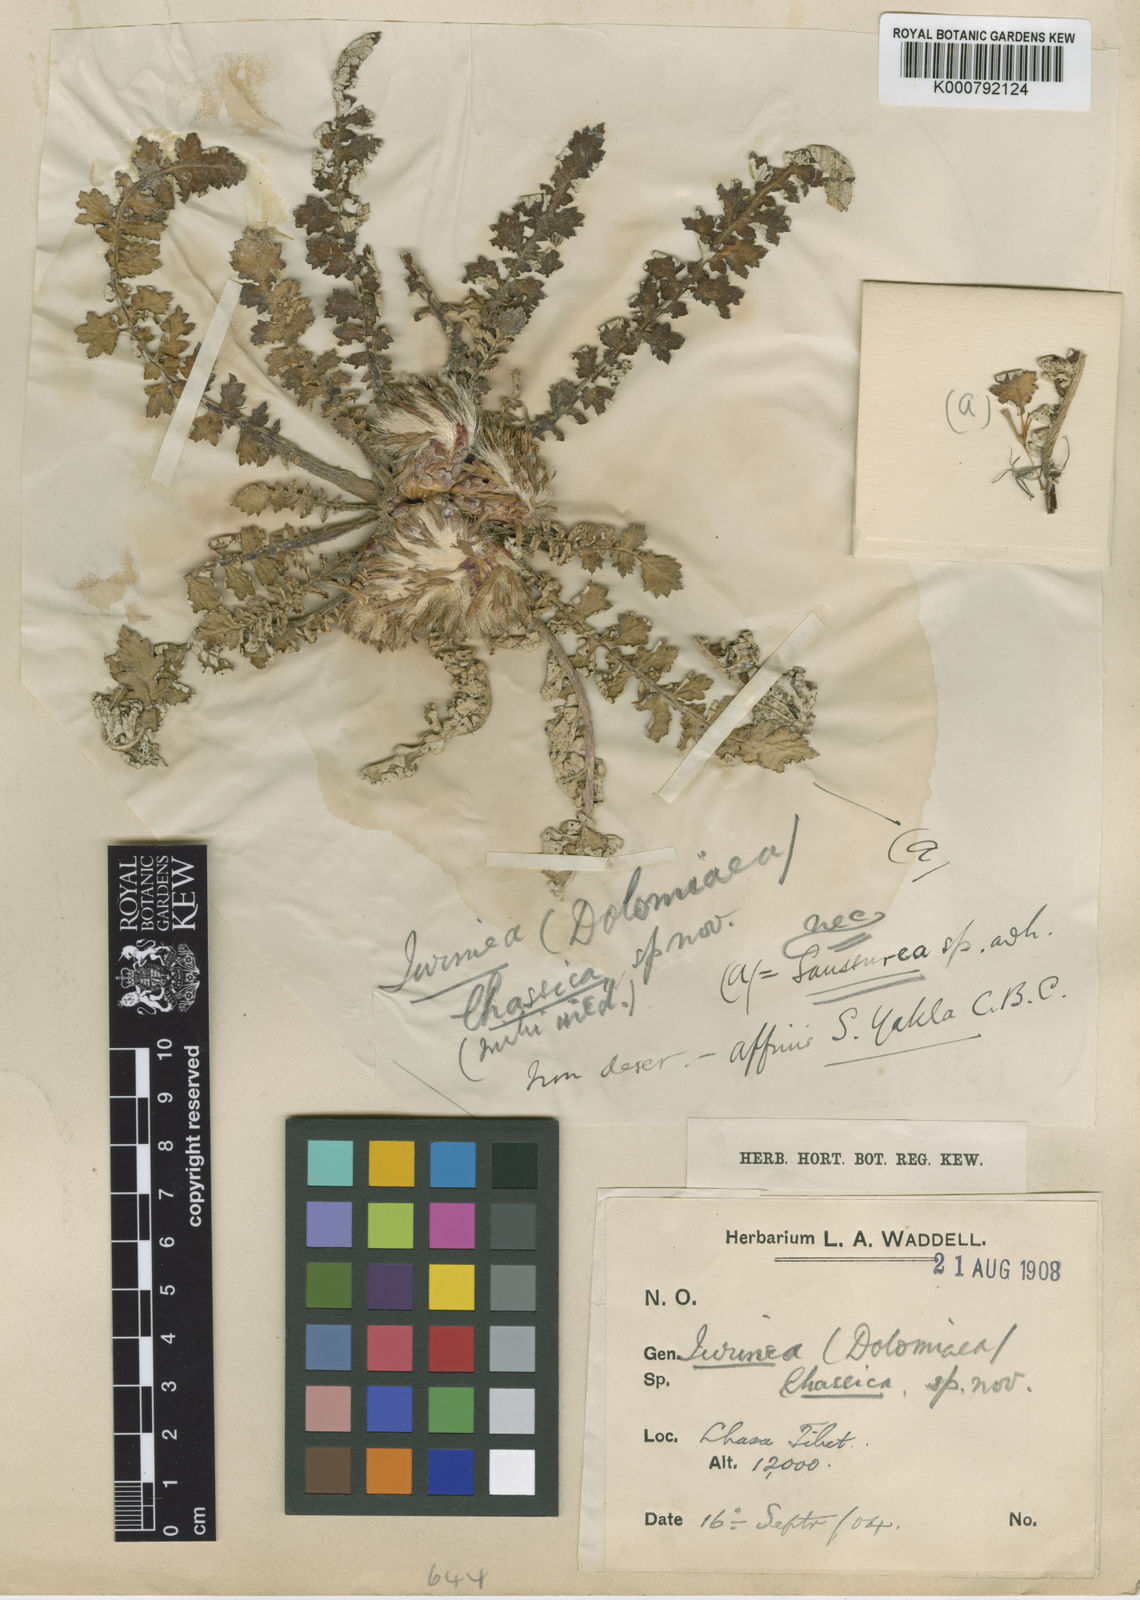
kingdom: Plantae
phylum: Tracheophyta
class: Magnoliopsida
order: Asterales
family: Asteraceae
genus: Dolomiaea
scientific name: Dolomiaea
